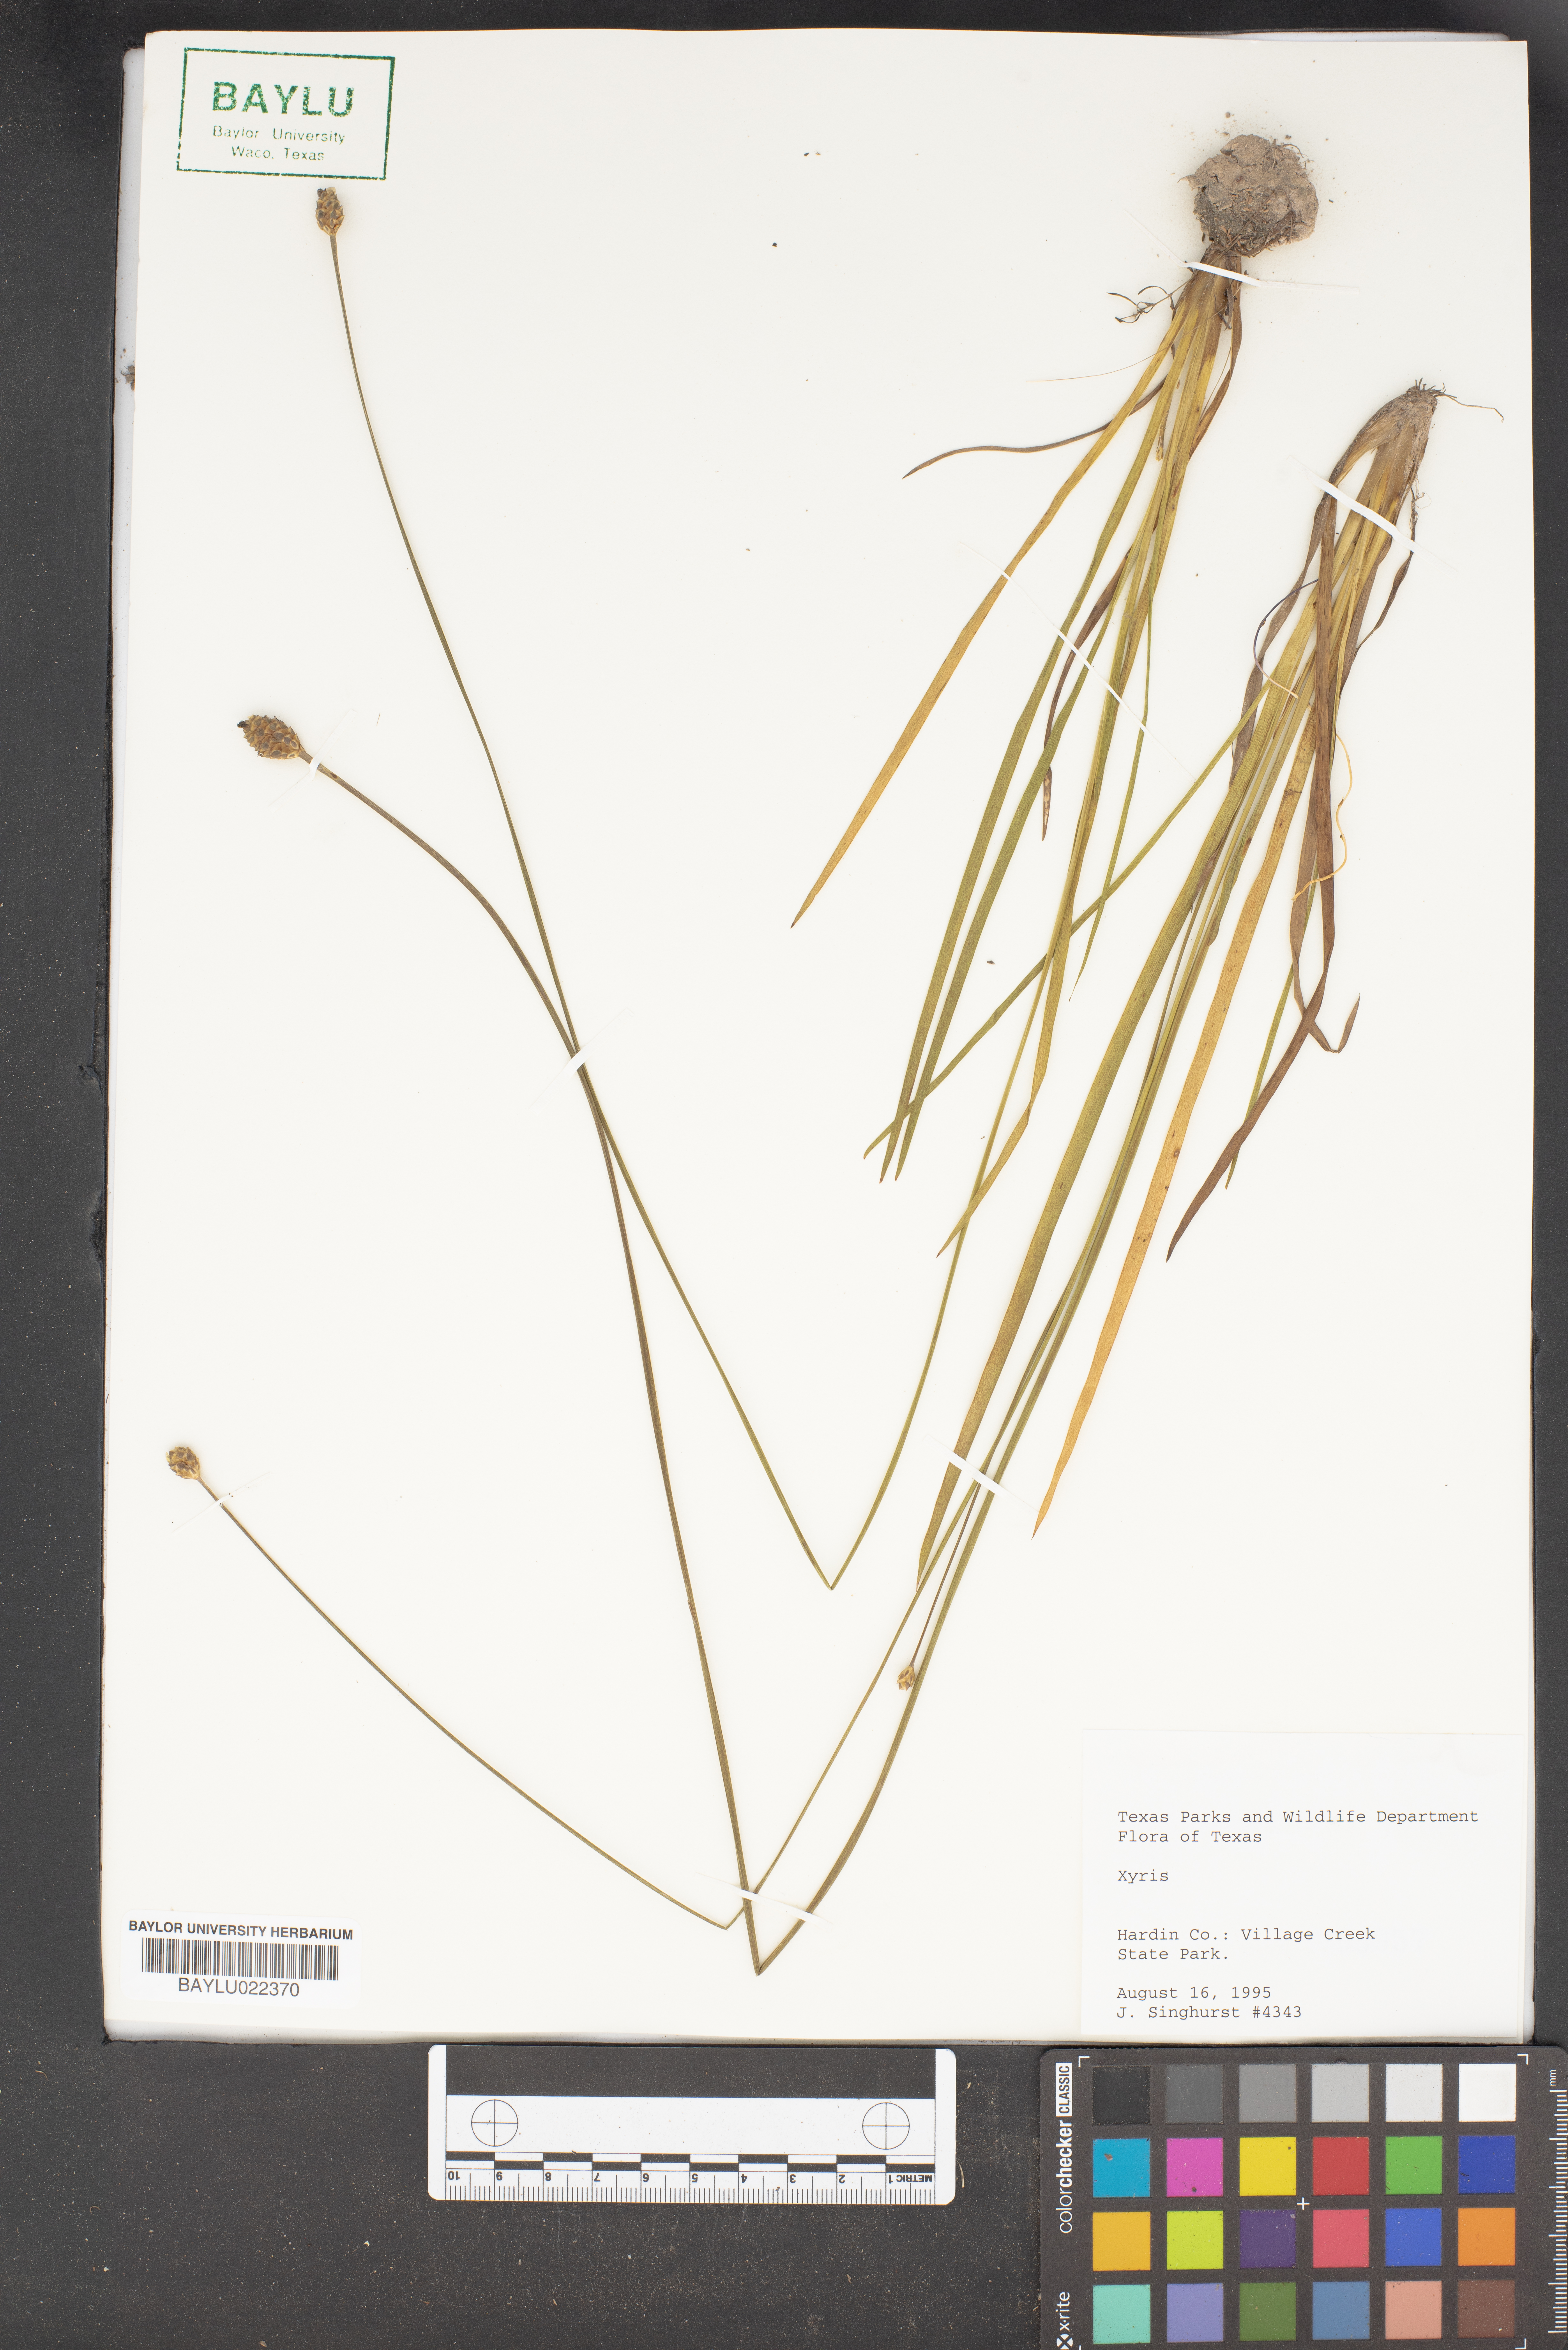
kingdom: Plantae
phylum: Tracheophyta
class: Liliopsida
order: Poales
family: Xyridaceae
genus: Xyris
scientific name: Xyris
